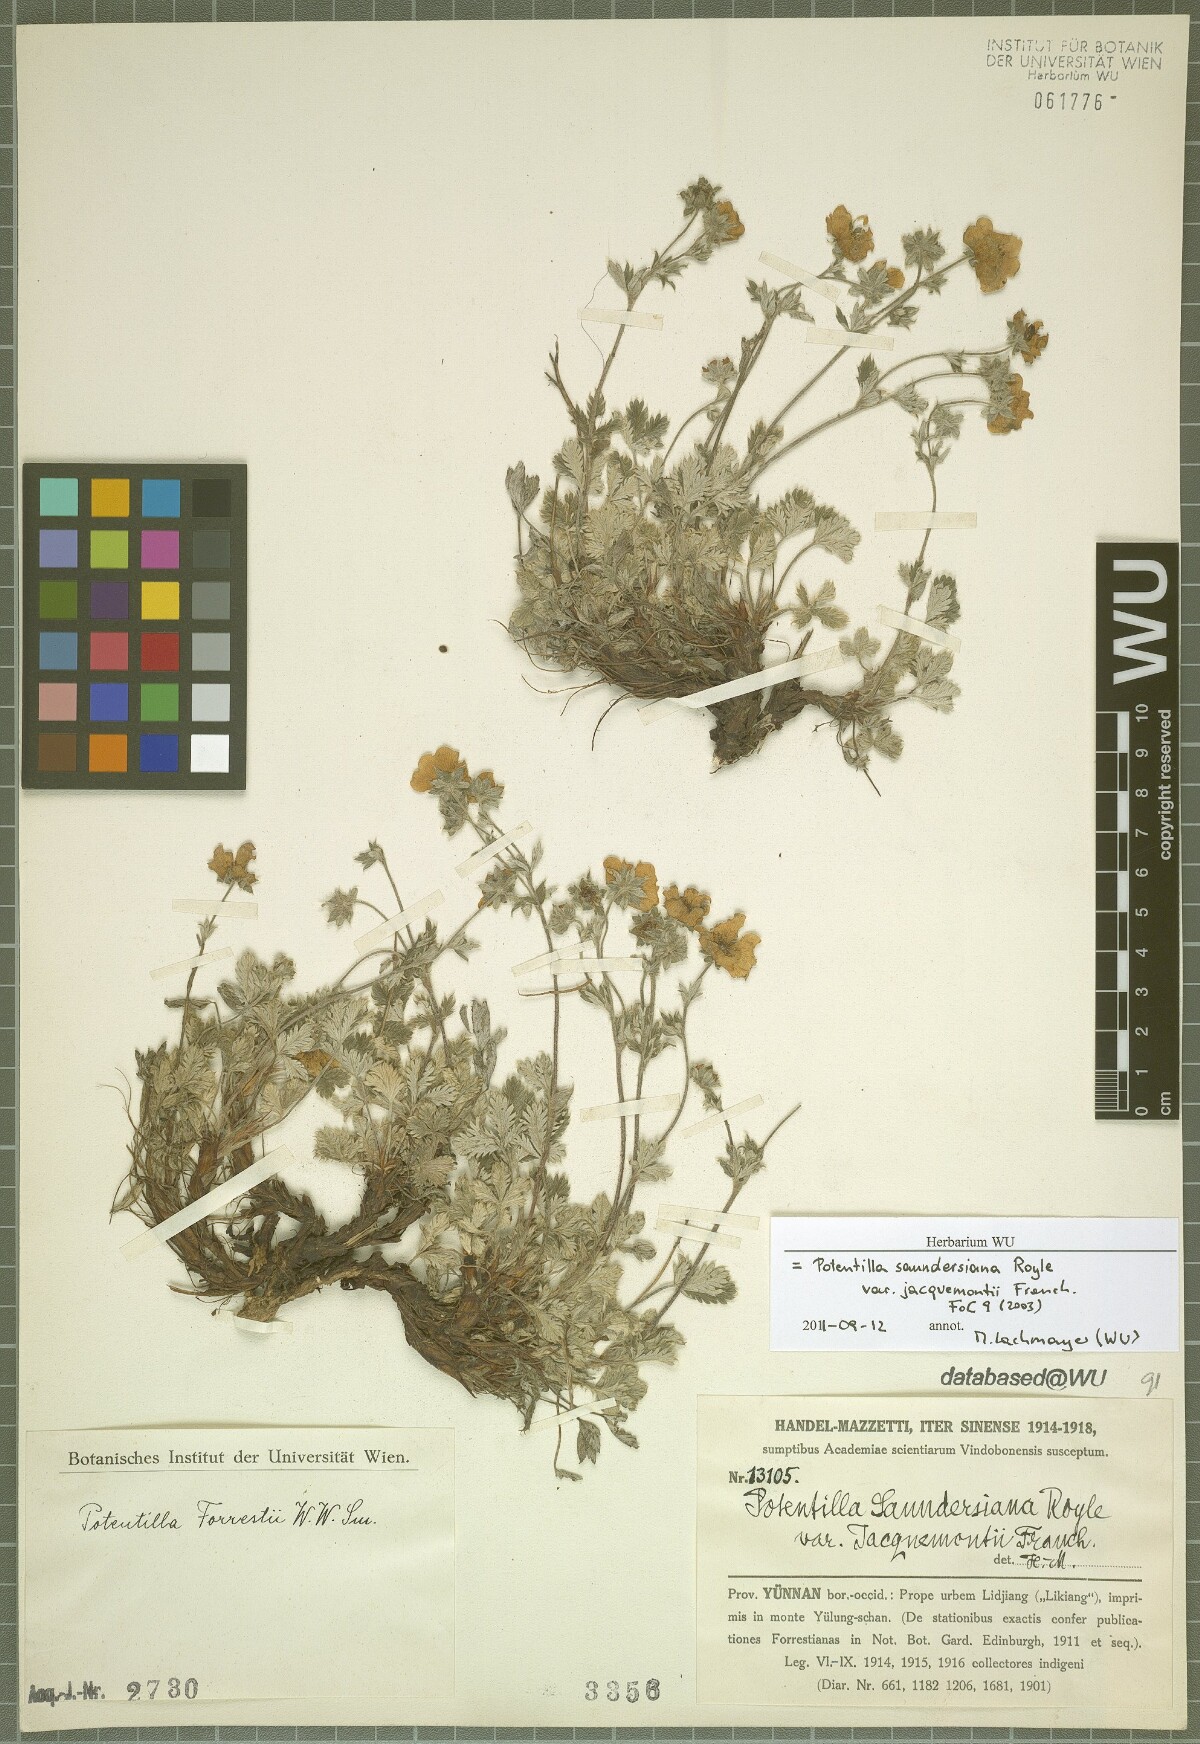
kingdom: Plantae
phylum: Tracheophyta
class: Magnoliopsida
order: Rosales
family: Rosaceae
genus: Potentilla
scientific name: Potentilla forrestii
